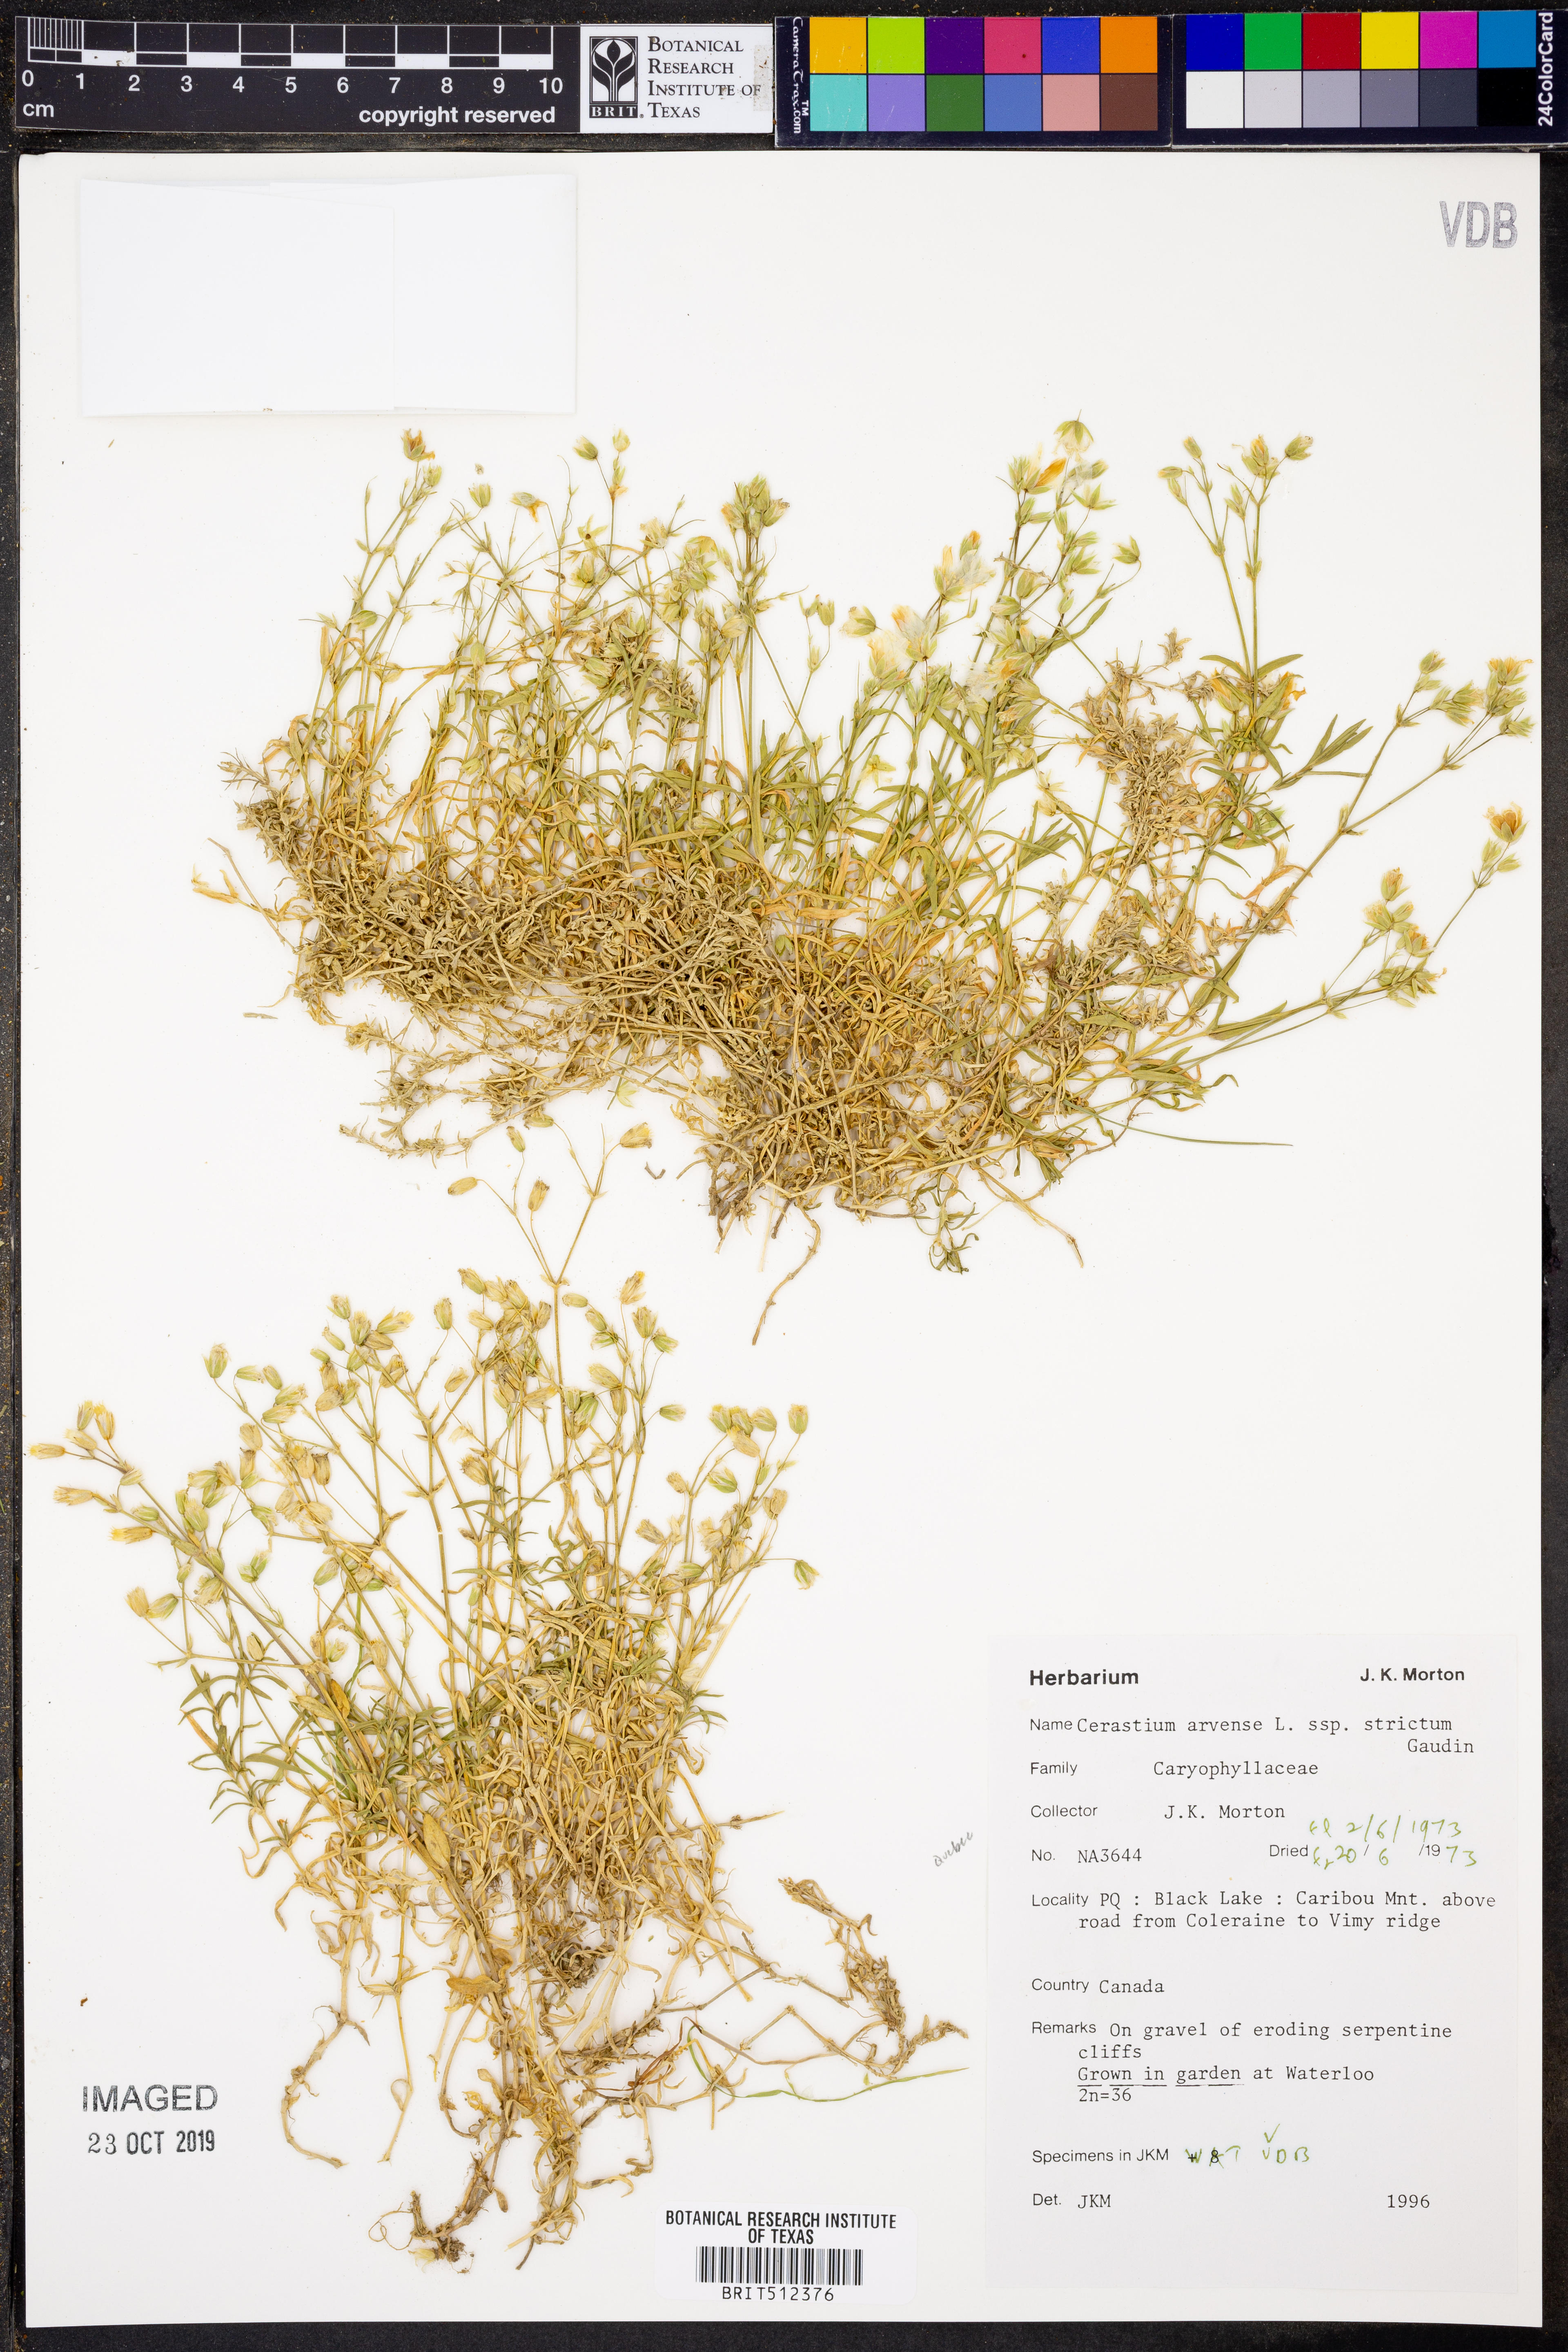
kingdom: Plantae
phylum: Tracheophyta
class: Magnoliopsida
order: Caryophyllales
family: Caryophyllaceae
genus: Cerastium
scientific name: Cerastium elongatum
